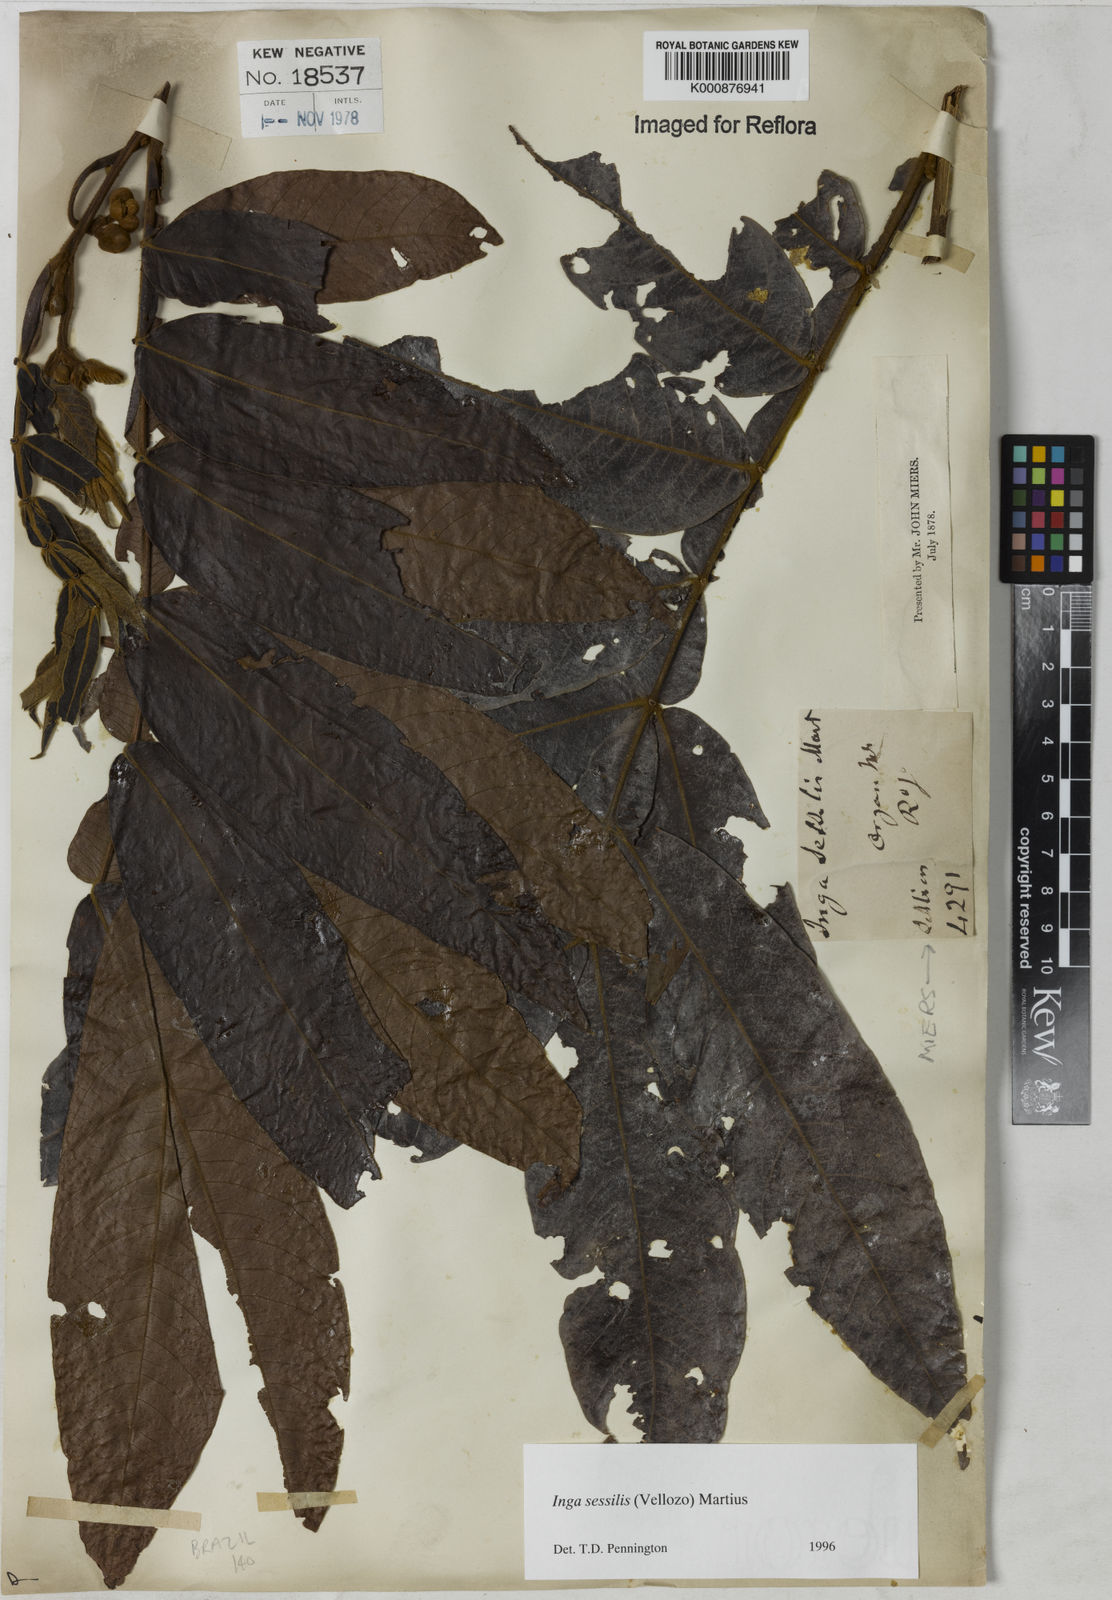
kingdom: Plantae
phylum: Tracheophyta
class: Magnoliopsida
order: Fabales
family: Fabaceae
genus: Inga
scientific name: Inga sessilis
